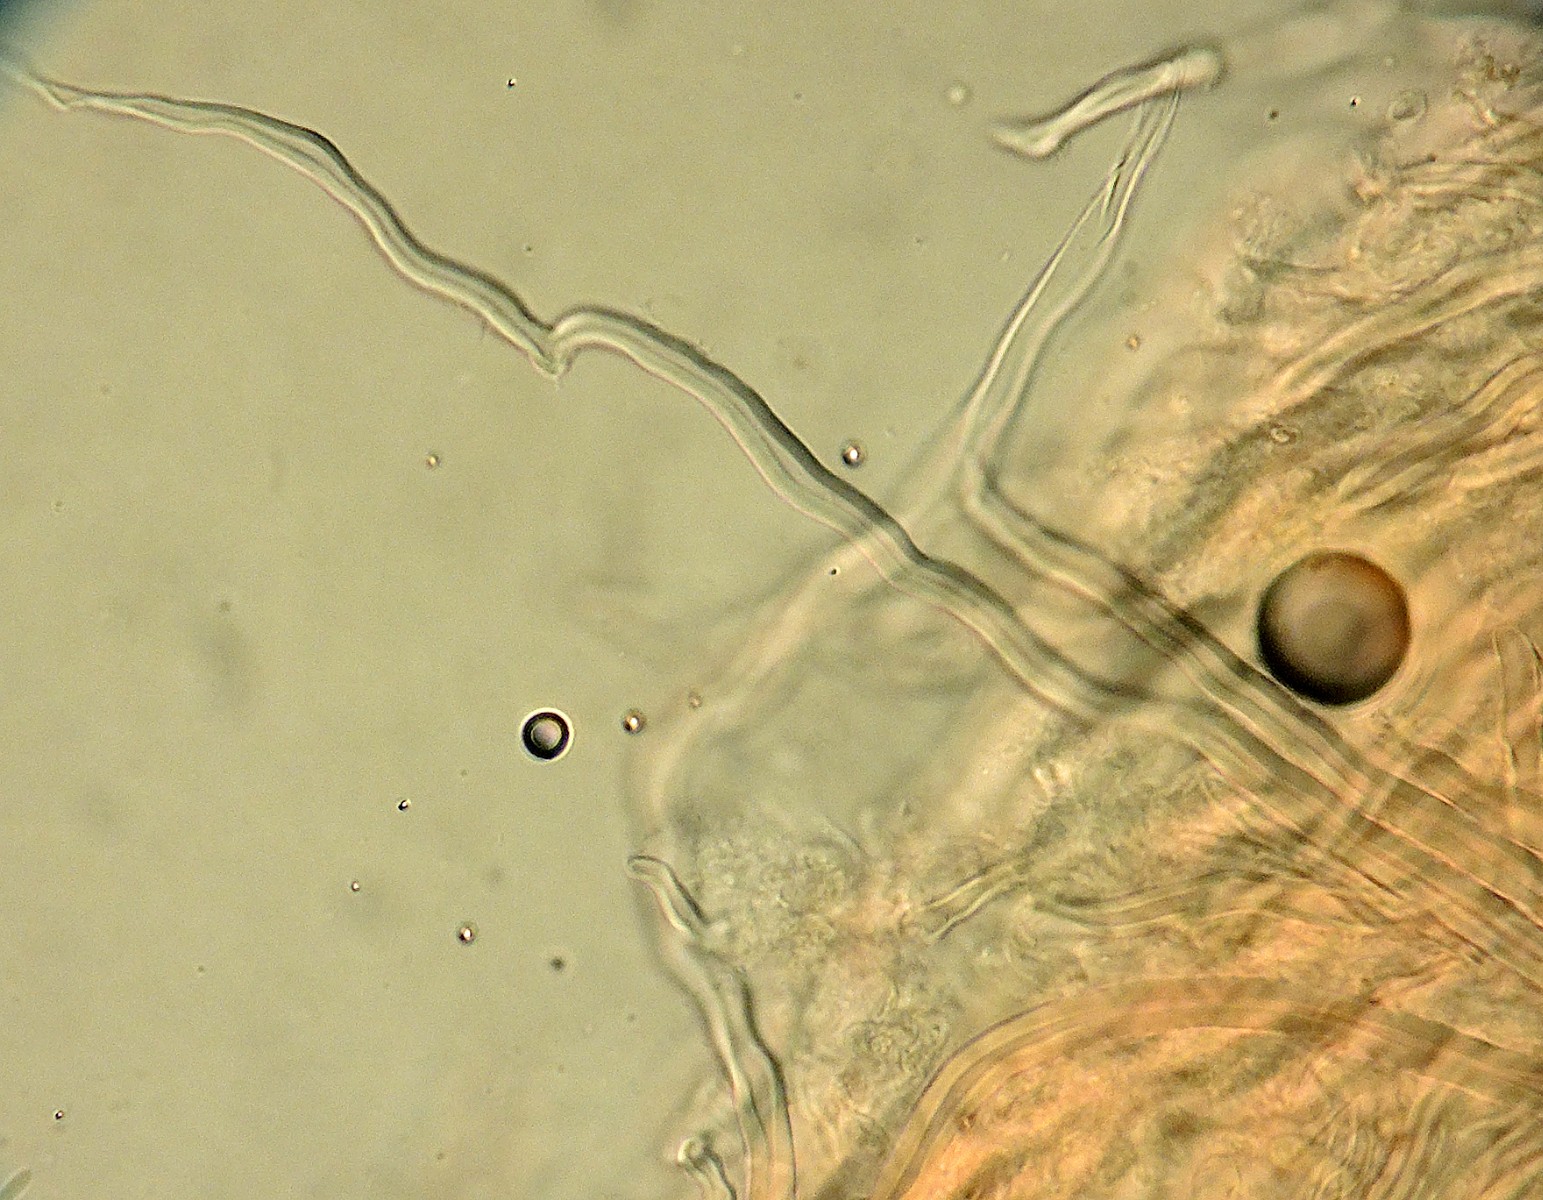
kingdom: Fungi
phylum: Basidiomycota
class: Agaricomycetes
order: Polyporales
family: Fomitopsidaceae
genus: Antrodia
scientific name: Antrodia
